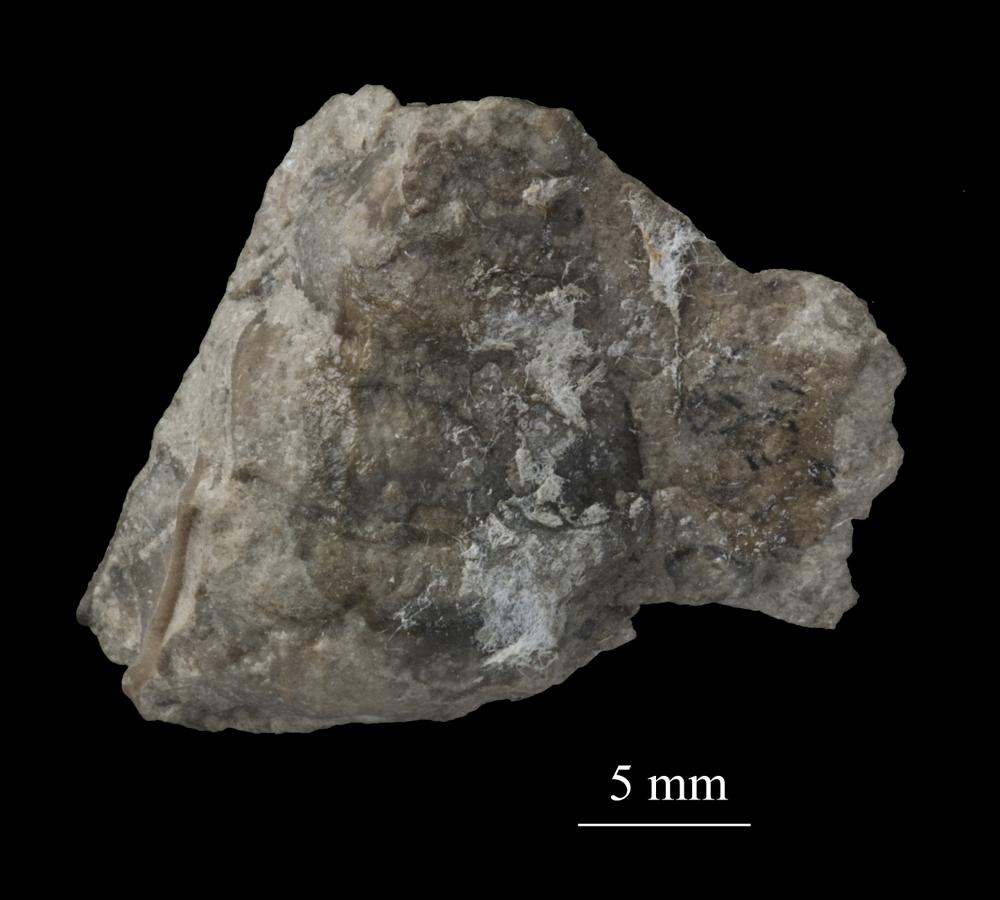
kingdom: Animalia
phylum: Mollusca
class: Gastropoda
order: Trochida
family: Turbinidae
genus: Turbo
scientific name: Turbo
